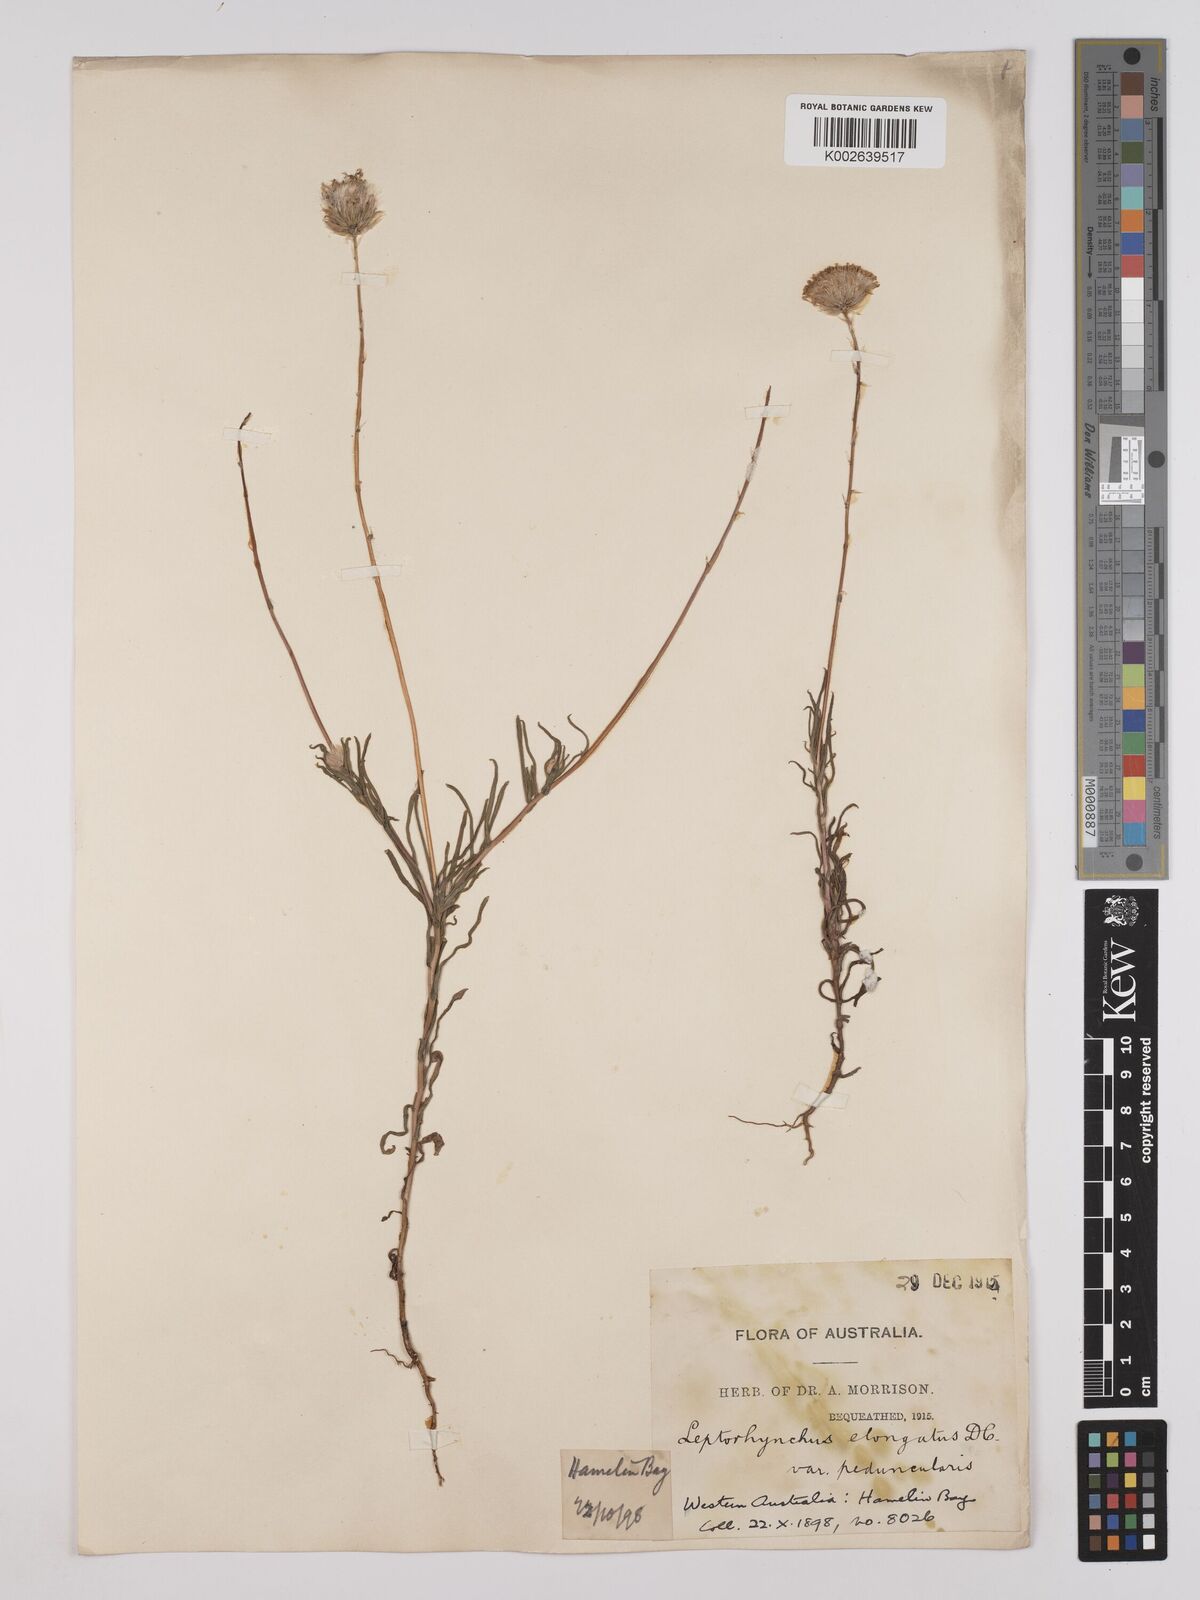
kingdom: Plantae
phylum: Tracheophyta
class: Magnoliopsida
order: Asterales
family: Asteraceae
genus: Leptorhynchos
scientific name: Leptorhynchos elongatus
